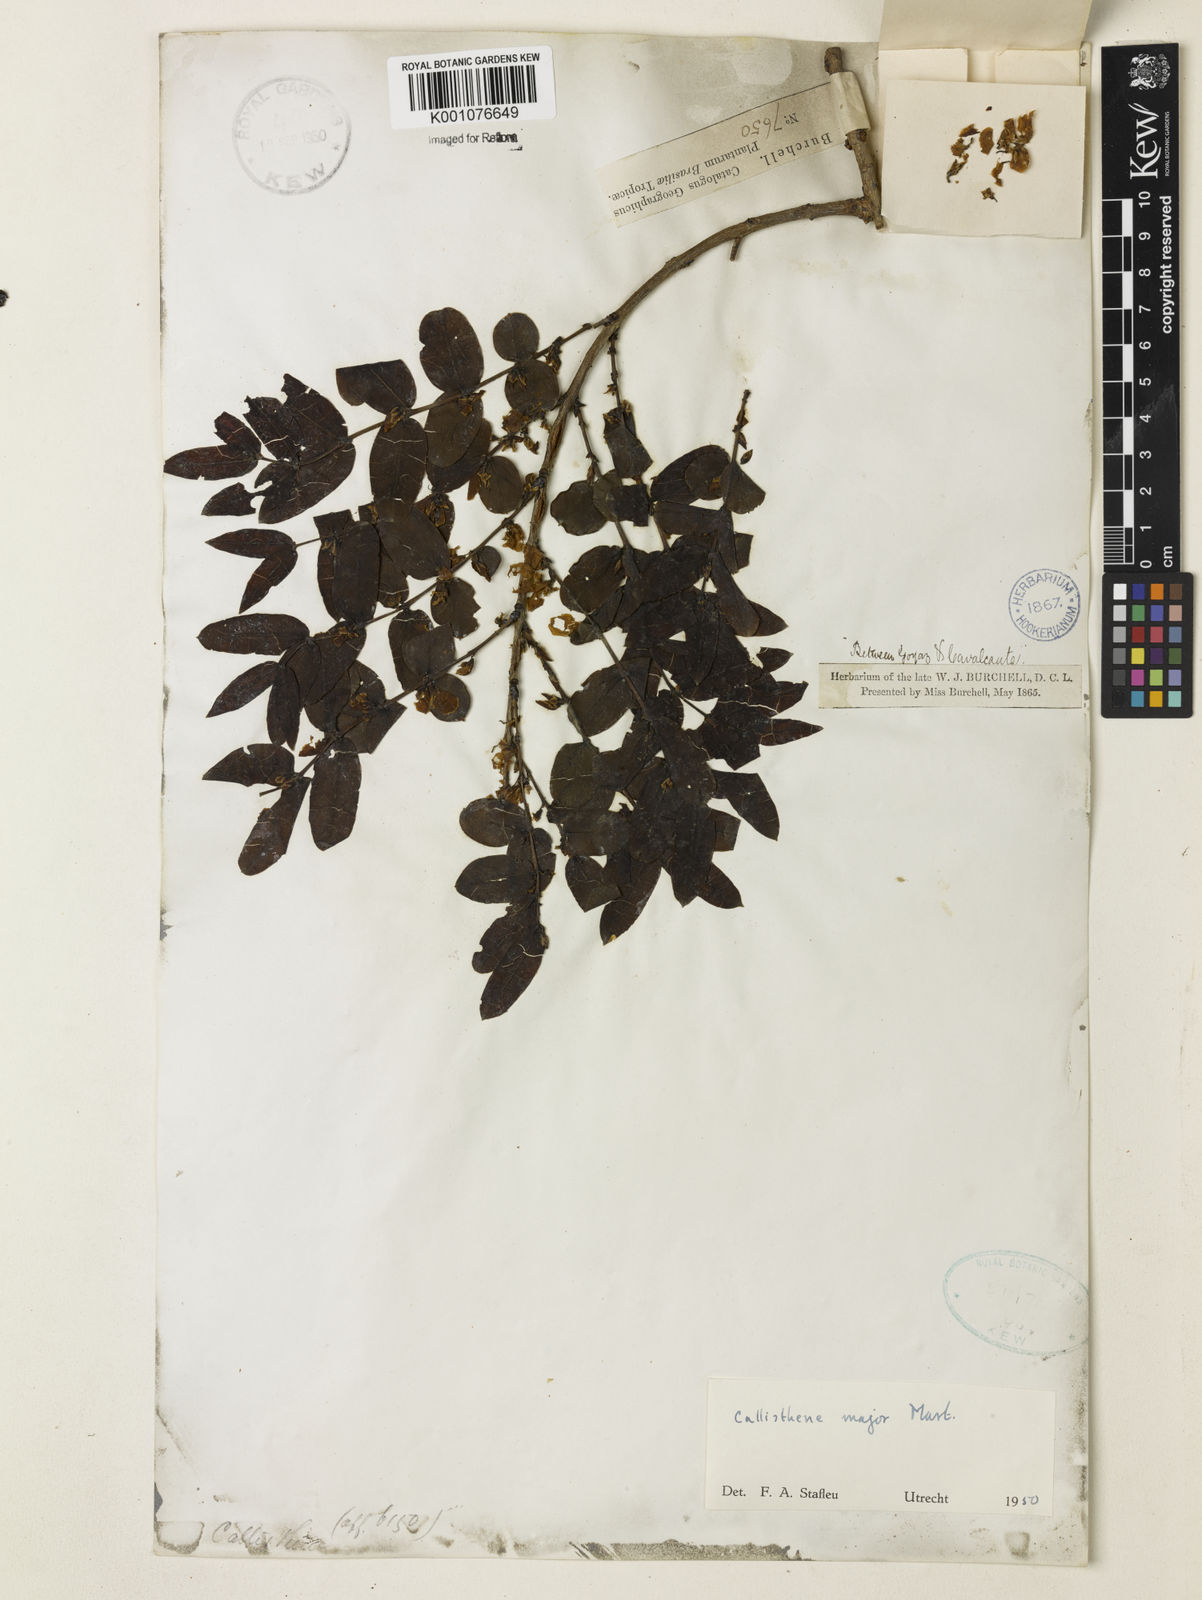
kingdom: Plantae
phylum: Tracheophyta
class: Magnoliopsida
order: Myrtales
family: Vochysiaceae
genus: Callisthene
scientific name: Callisthene major
